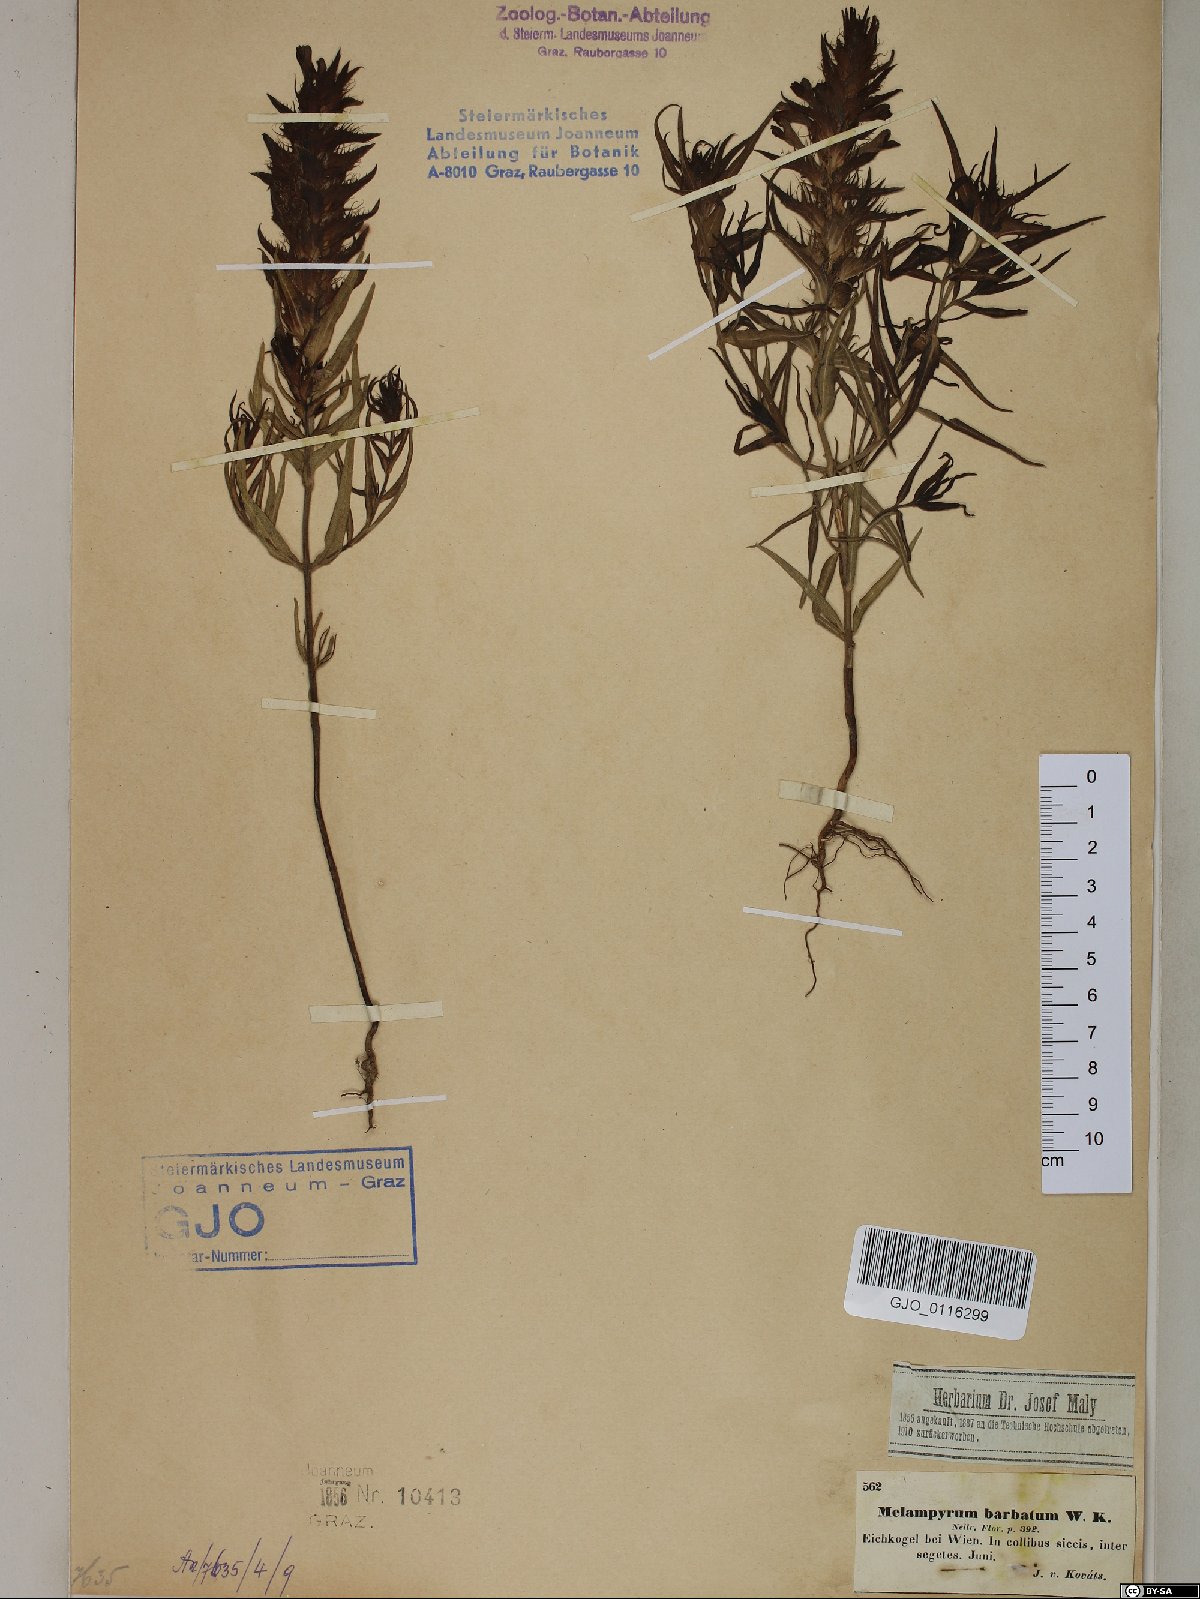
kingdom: Plantae
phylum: Tracheophyta
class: Magnoliopsida
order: Lamiales
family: Orobanchaceae
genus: Melampyrum
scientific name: Melampyrum barbatum
